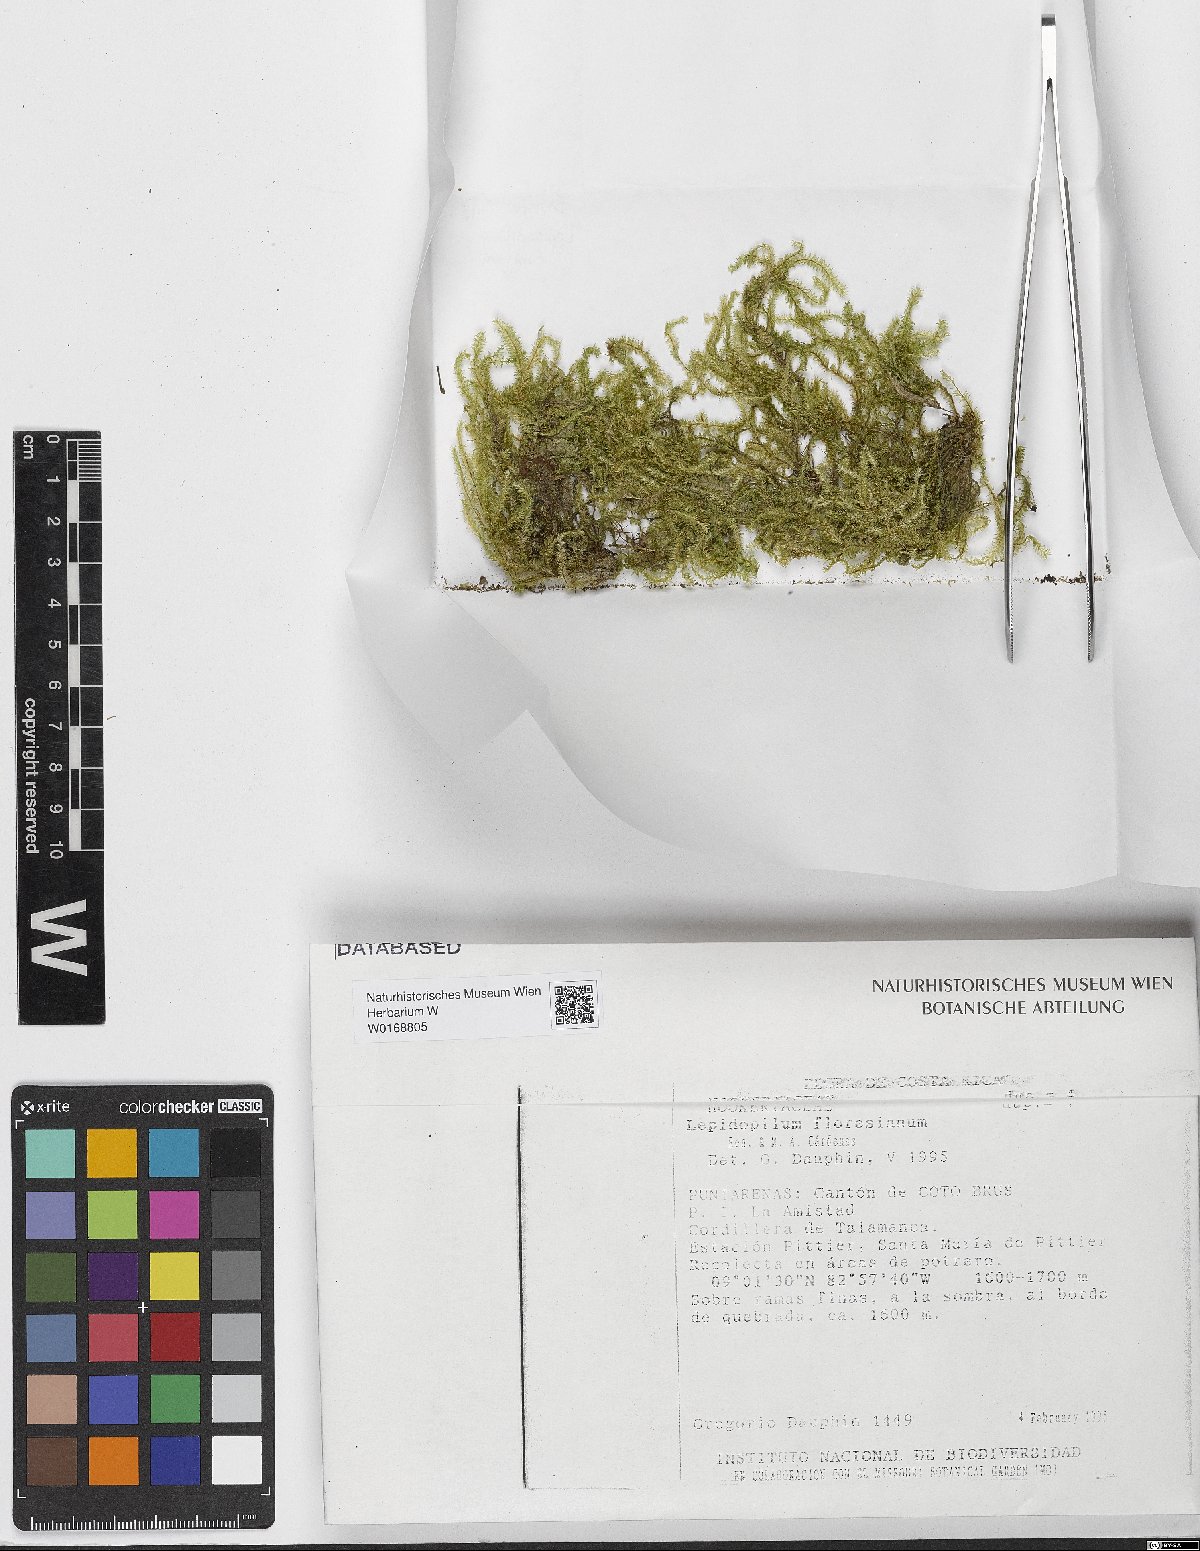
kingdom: Plantae
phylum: Bryophyta
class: Bryopsida
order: Hookeriales
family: Pilotrichaceae
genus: Lepidopilum
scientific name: Lepidopilum muelleri
